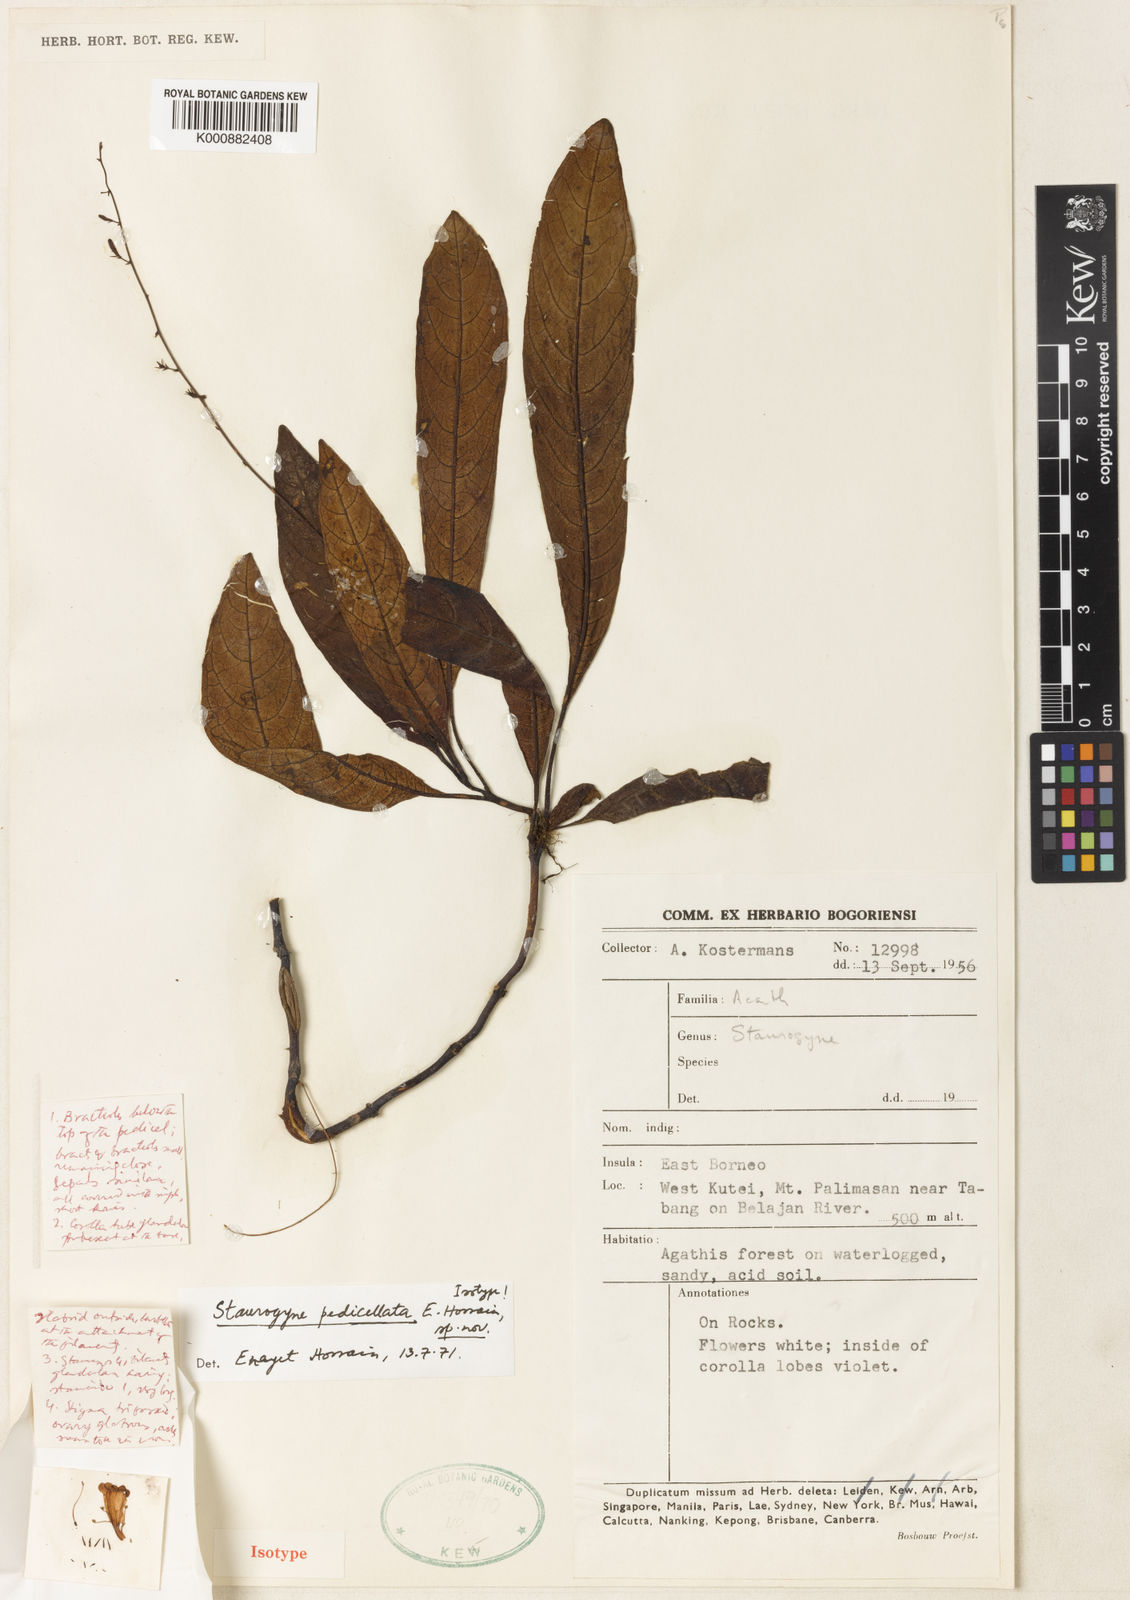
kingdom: Plantae
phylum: Tracheophyta
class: Magnoliopsida
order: Lamiales
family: Acanthaceae
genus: Staurogyne
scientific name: Staurogyne
